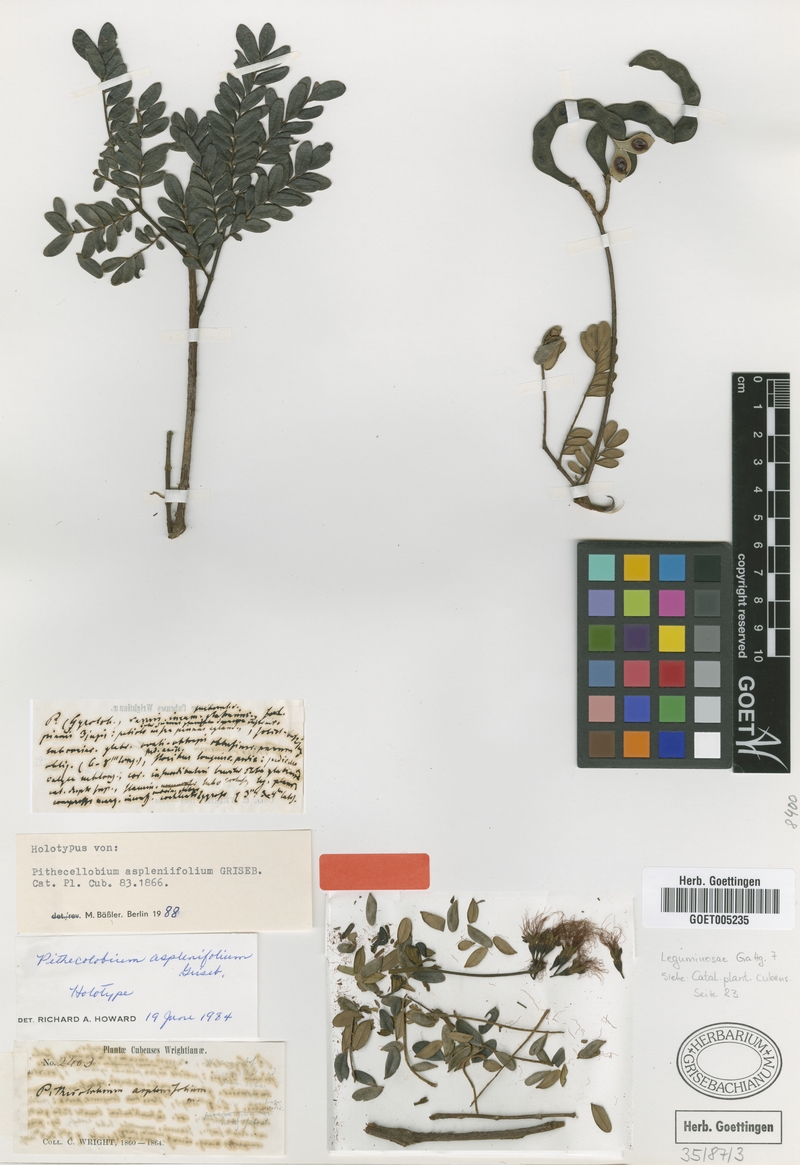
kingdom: Plantae
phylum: Tracheophyta
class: Magnoliopsida
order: Fabales
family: Fabaceae
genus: Jupunba
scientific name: Jupunba asplenifolia
